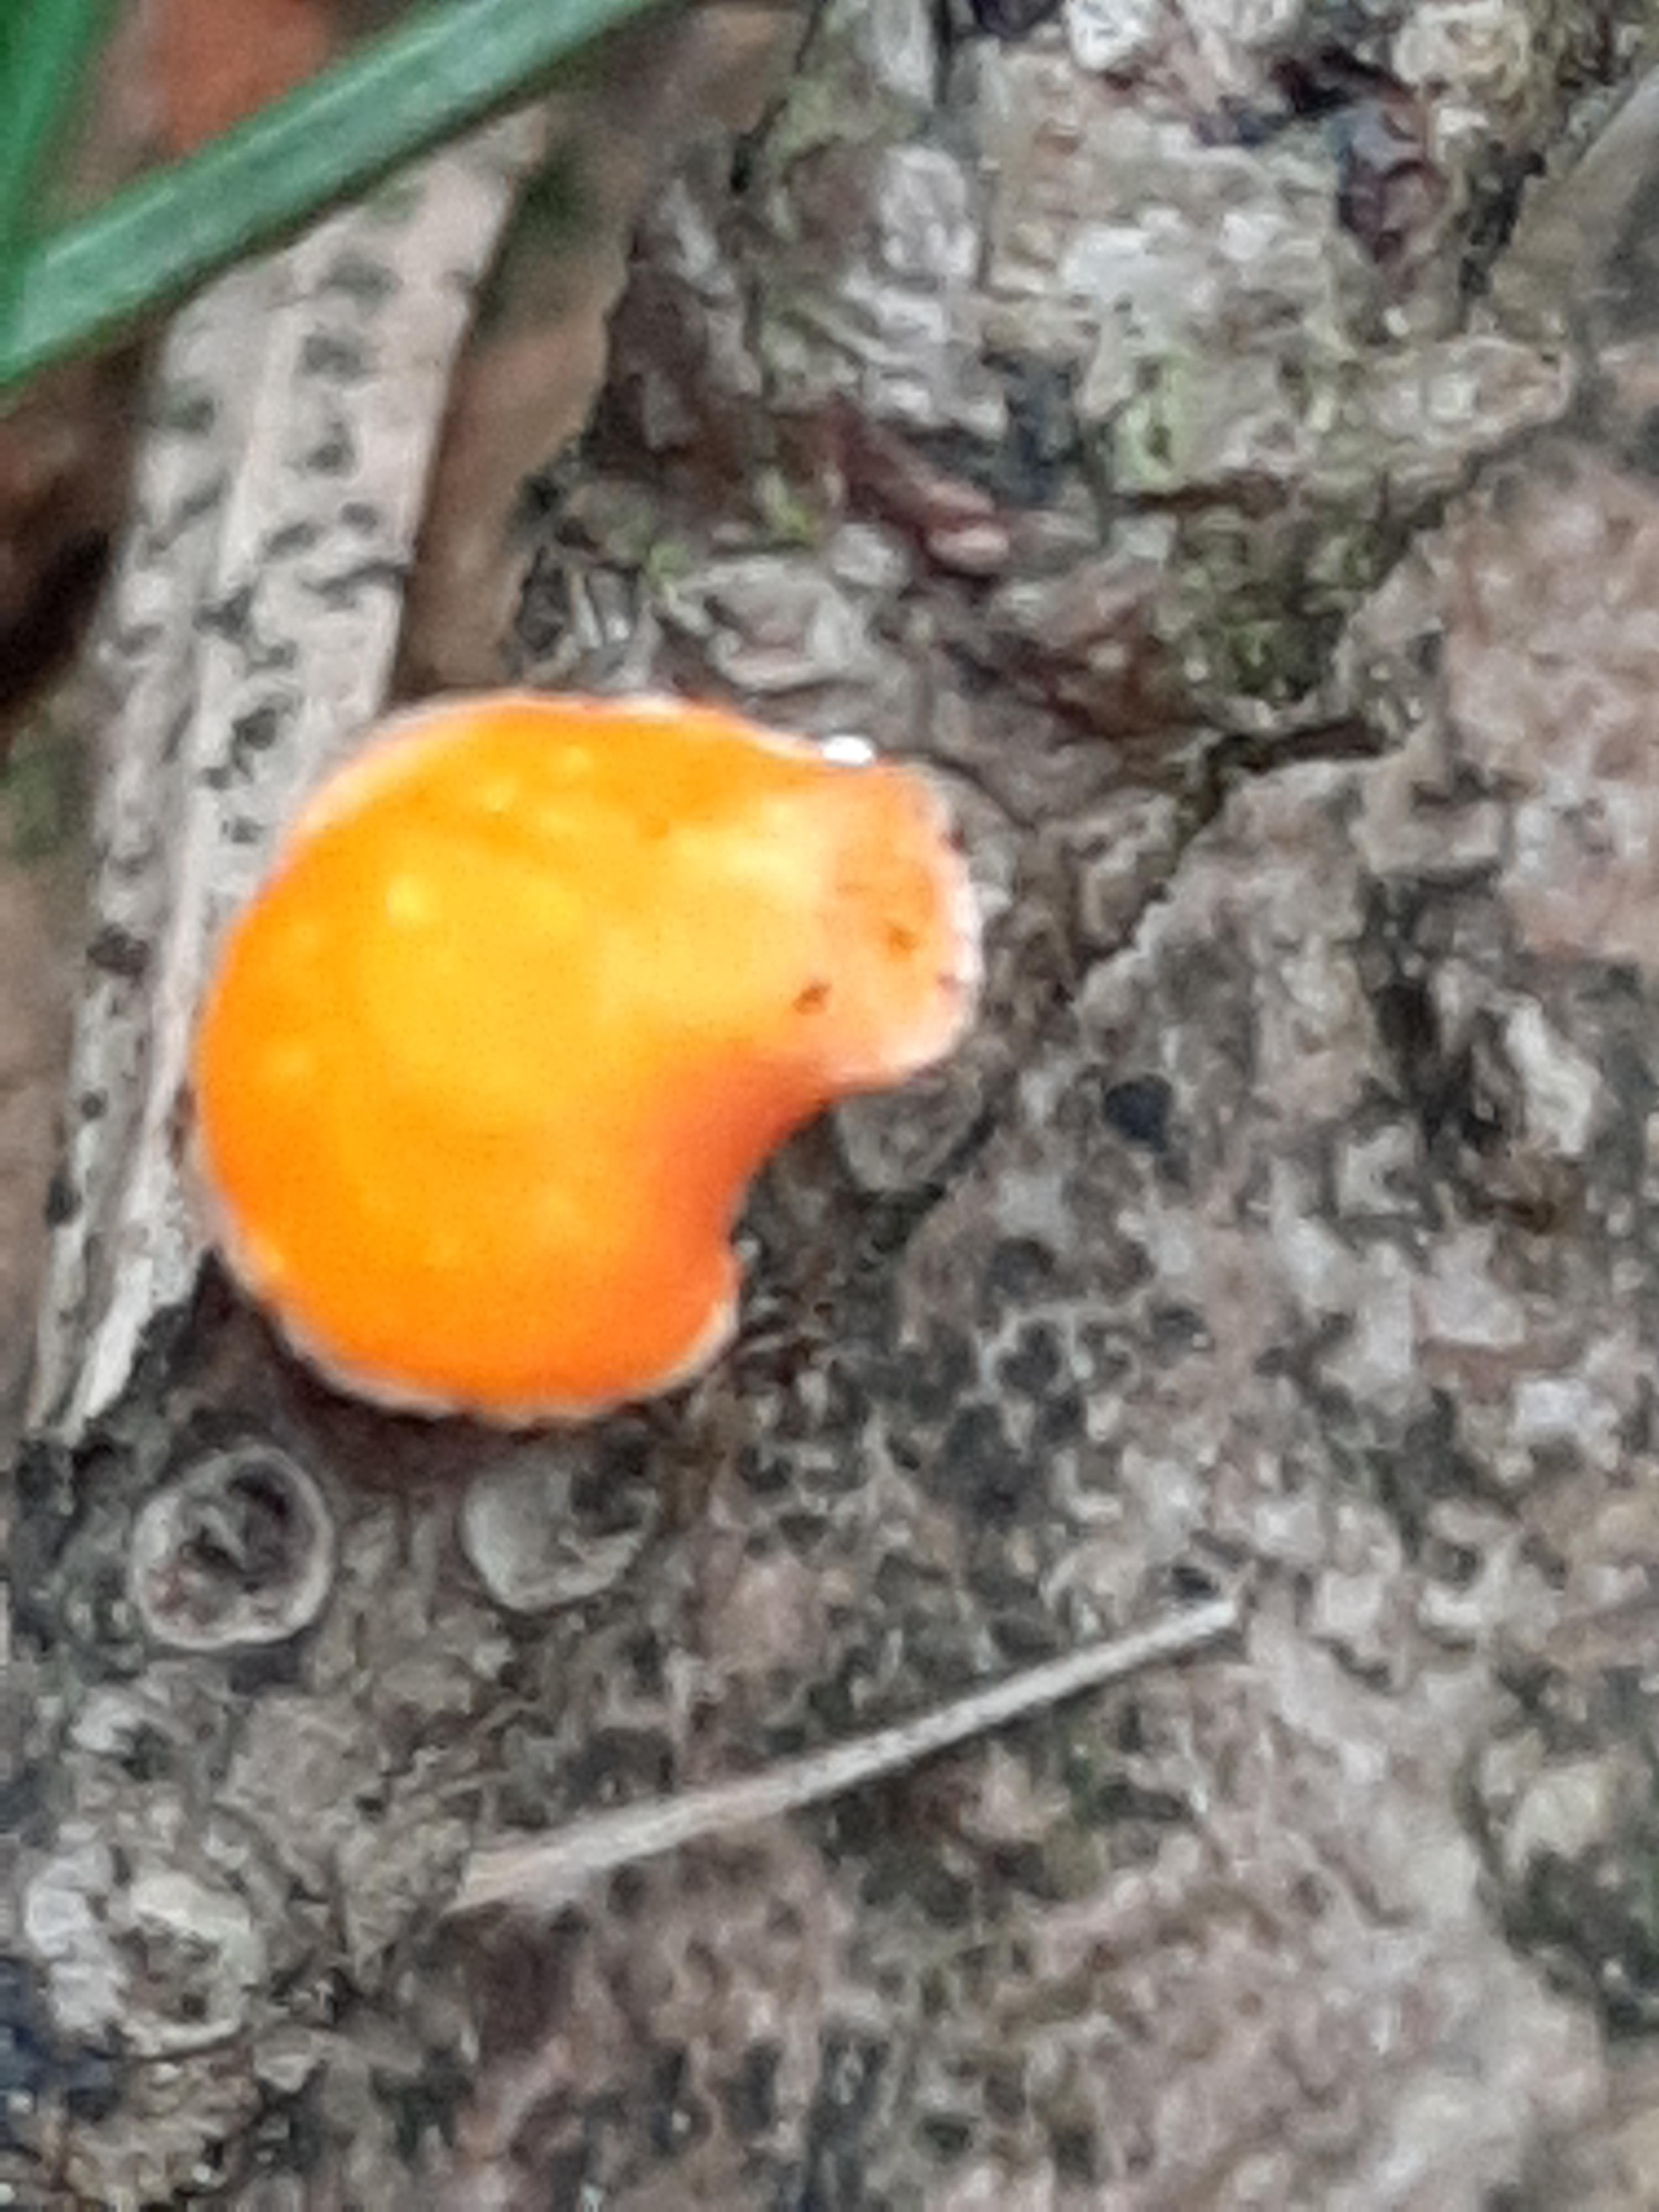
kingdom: Fungi
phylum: Ascomycota
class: Pezizomycetes
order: Pezizales
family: Sarcoscyphaceae
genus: Pithya
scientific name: Pithya vulgaris
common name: stor dukatbæger
